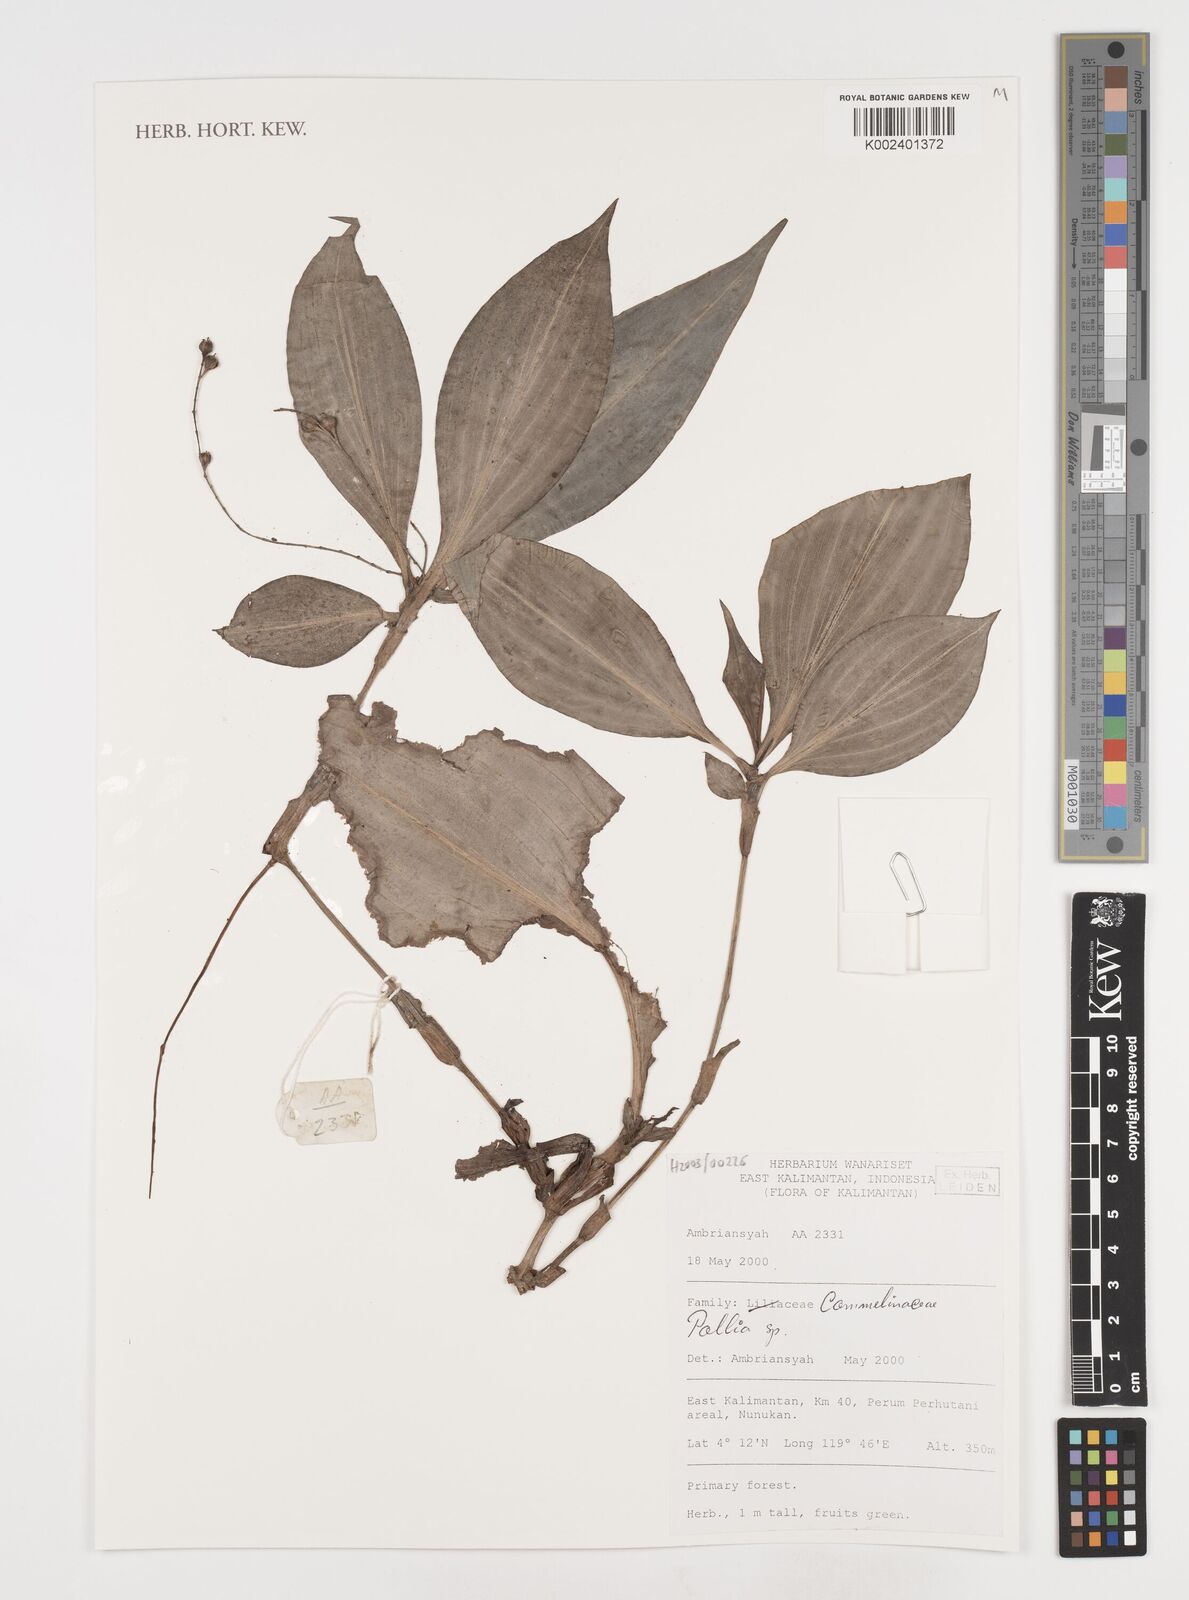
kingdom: Plantae
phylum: Tracheophyta
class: Liliopsida
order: Commelinales
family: Commelinaceae
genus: Pollia
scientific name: Pollia
